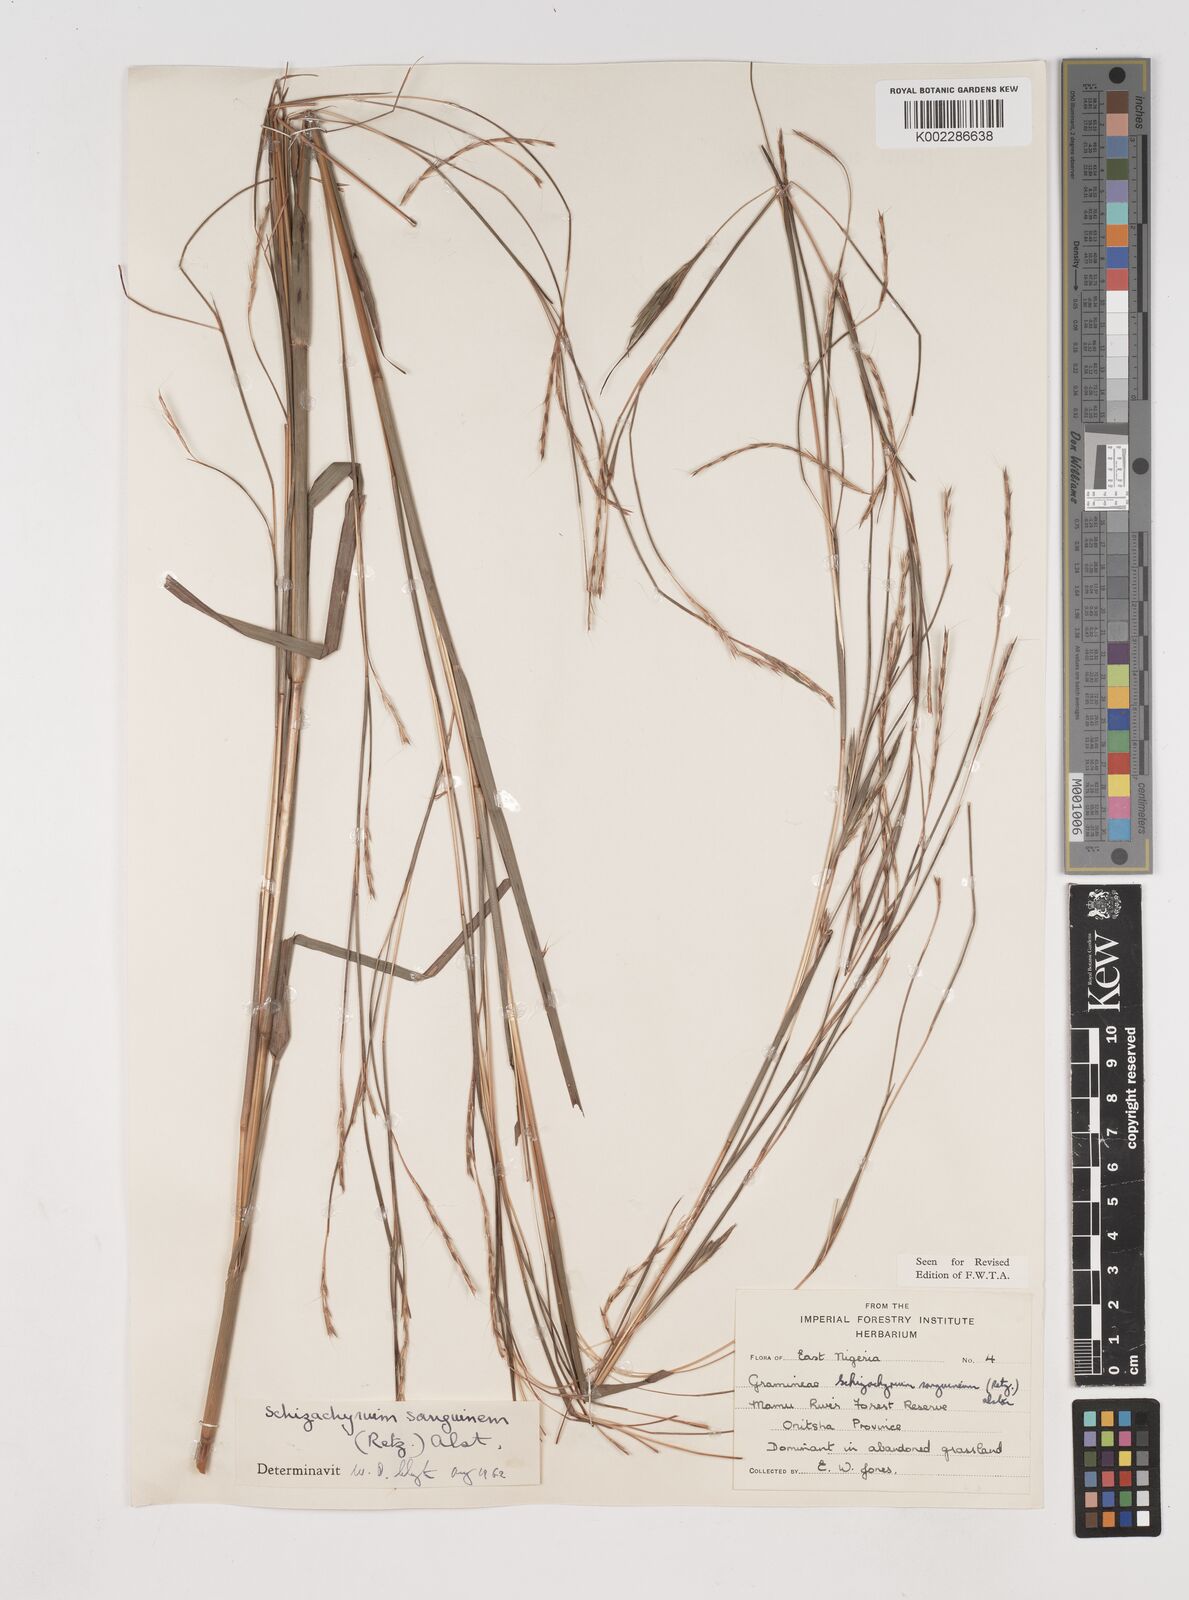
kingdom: Plantae
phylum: Tracheophyta
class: Liliopsida
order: Poales
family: Poaceae
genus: Schizachyrium
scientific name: Schizachyrium sanguineum
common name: Crimson bluestem
